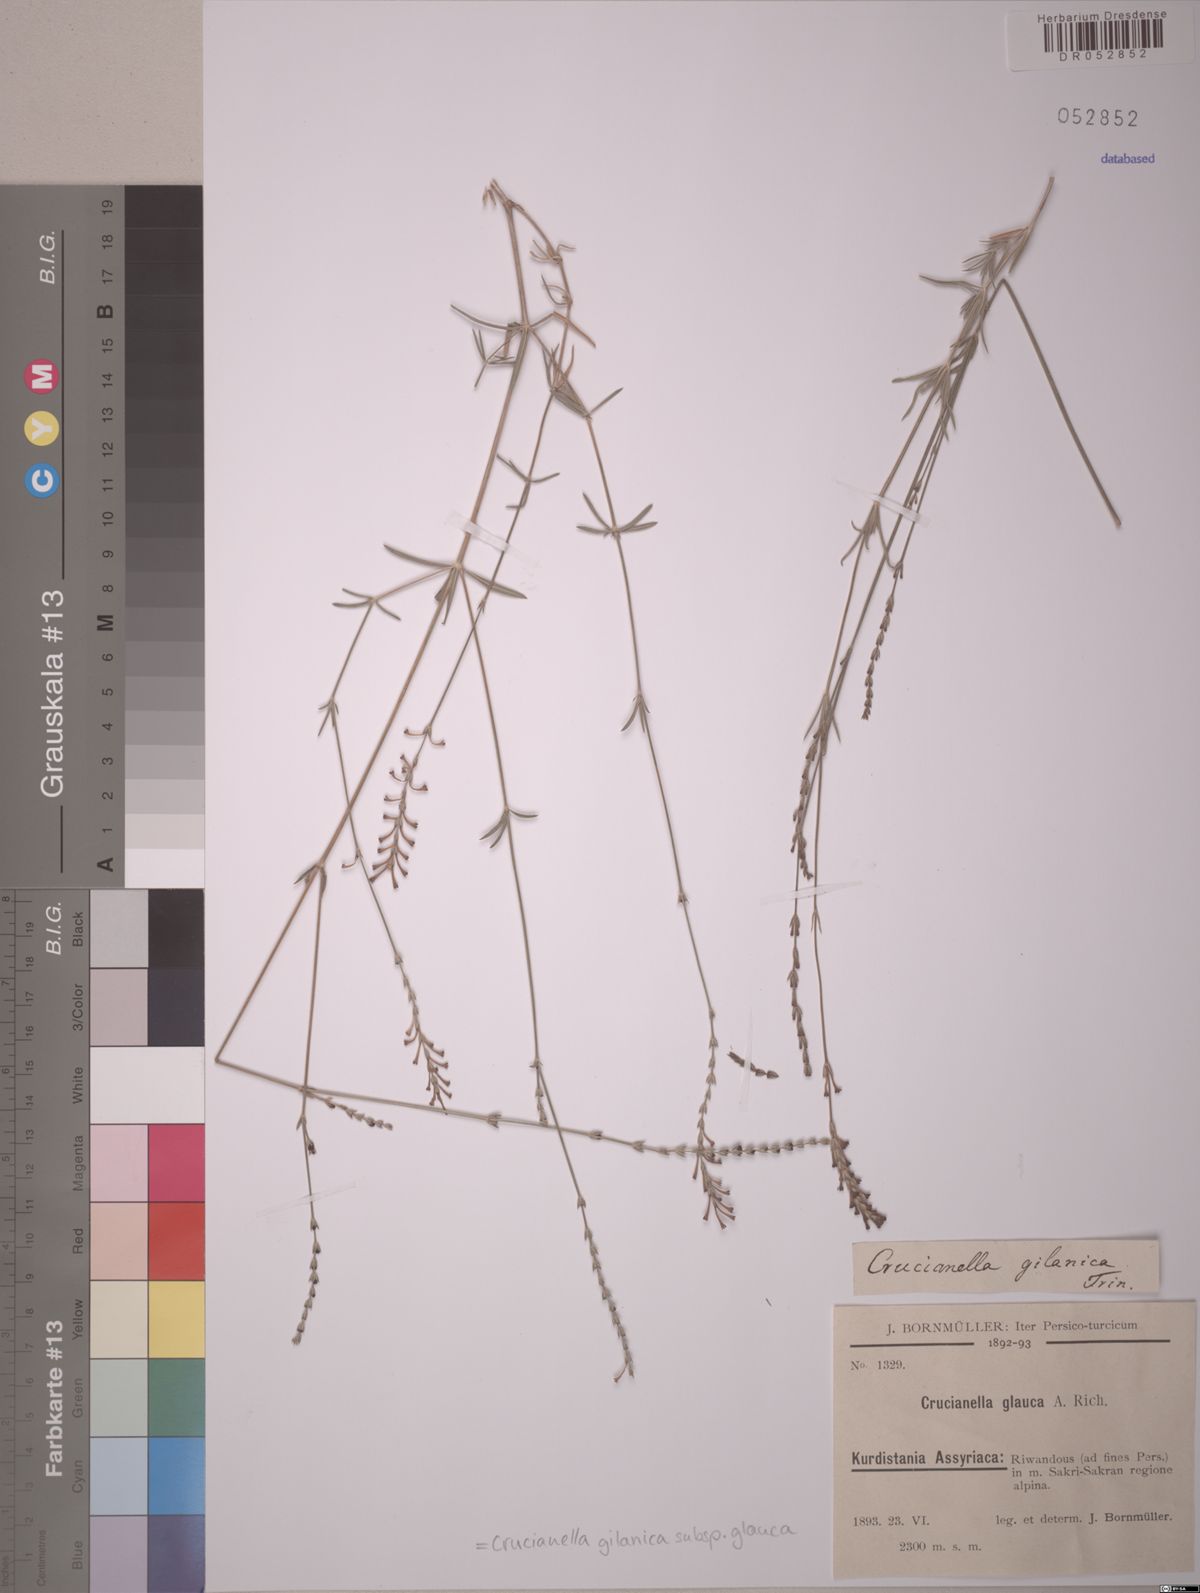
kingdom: Plantae
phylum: Tracheophyta
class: Magnoliopsida
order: Gentianales
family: Rubiaceae
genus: Crucianella
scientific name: Crucianella gilanica
